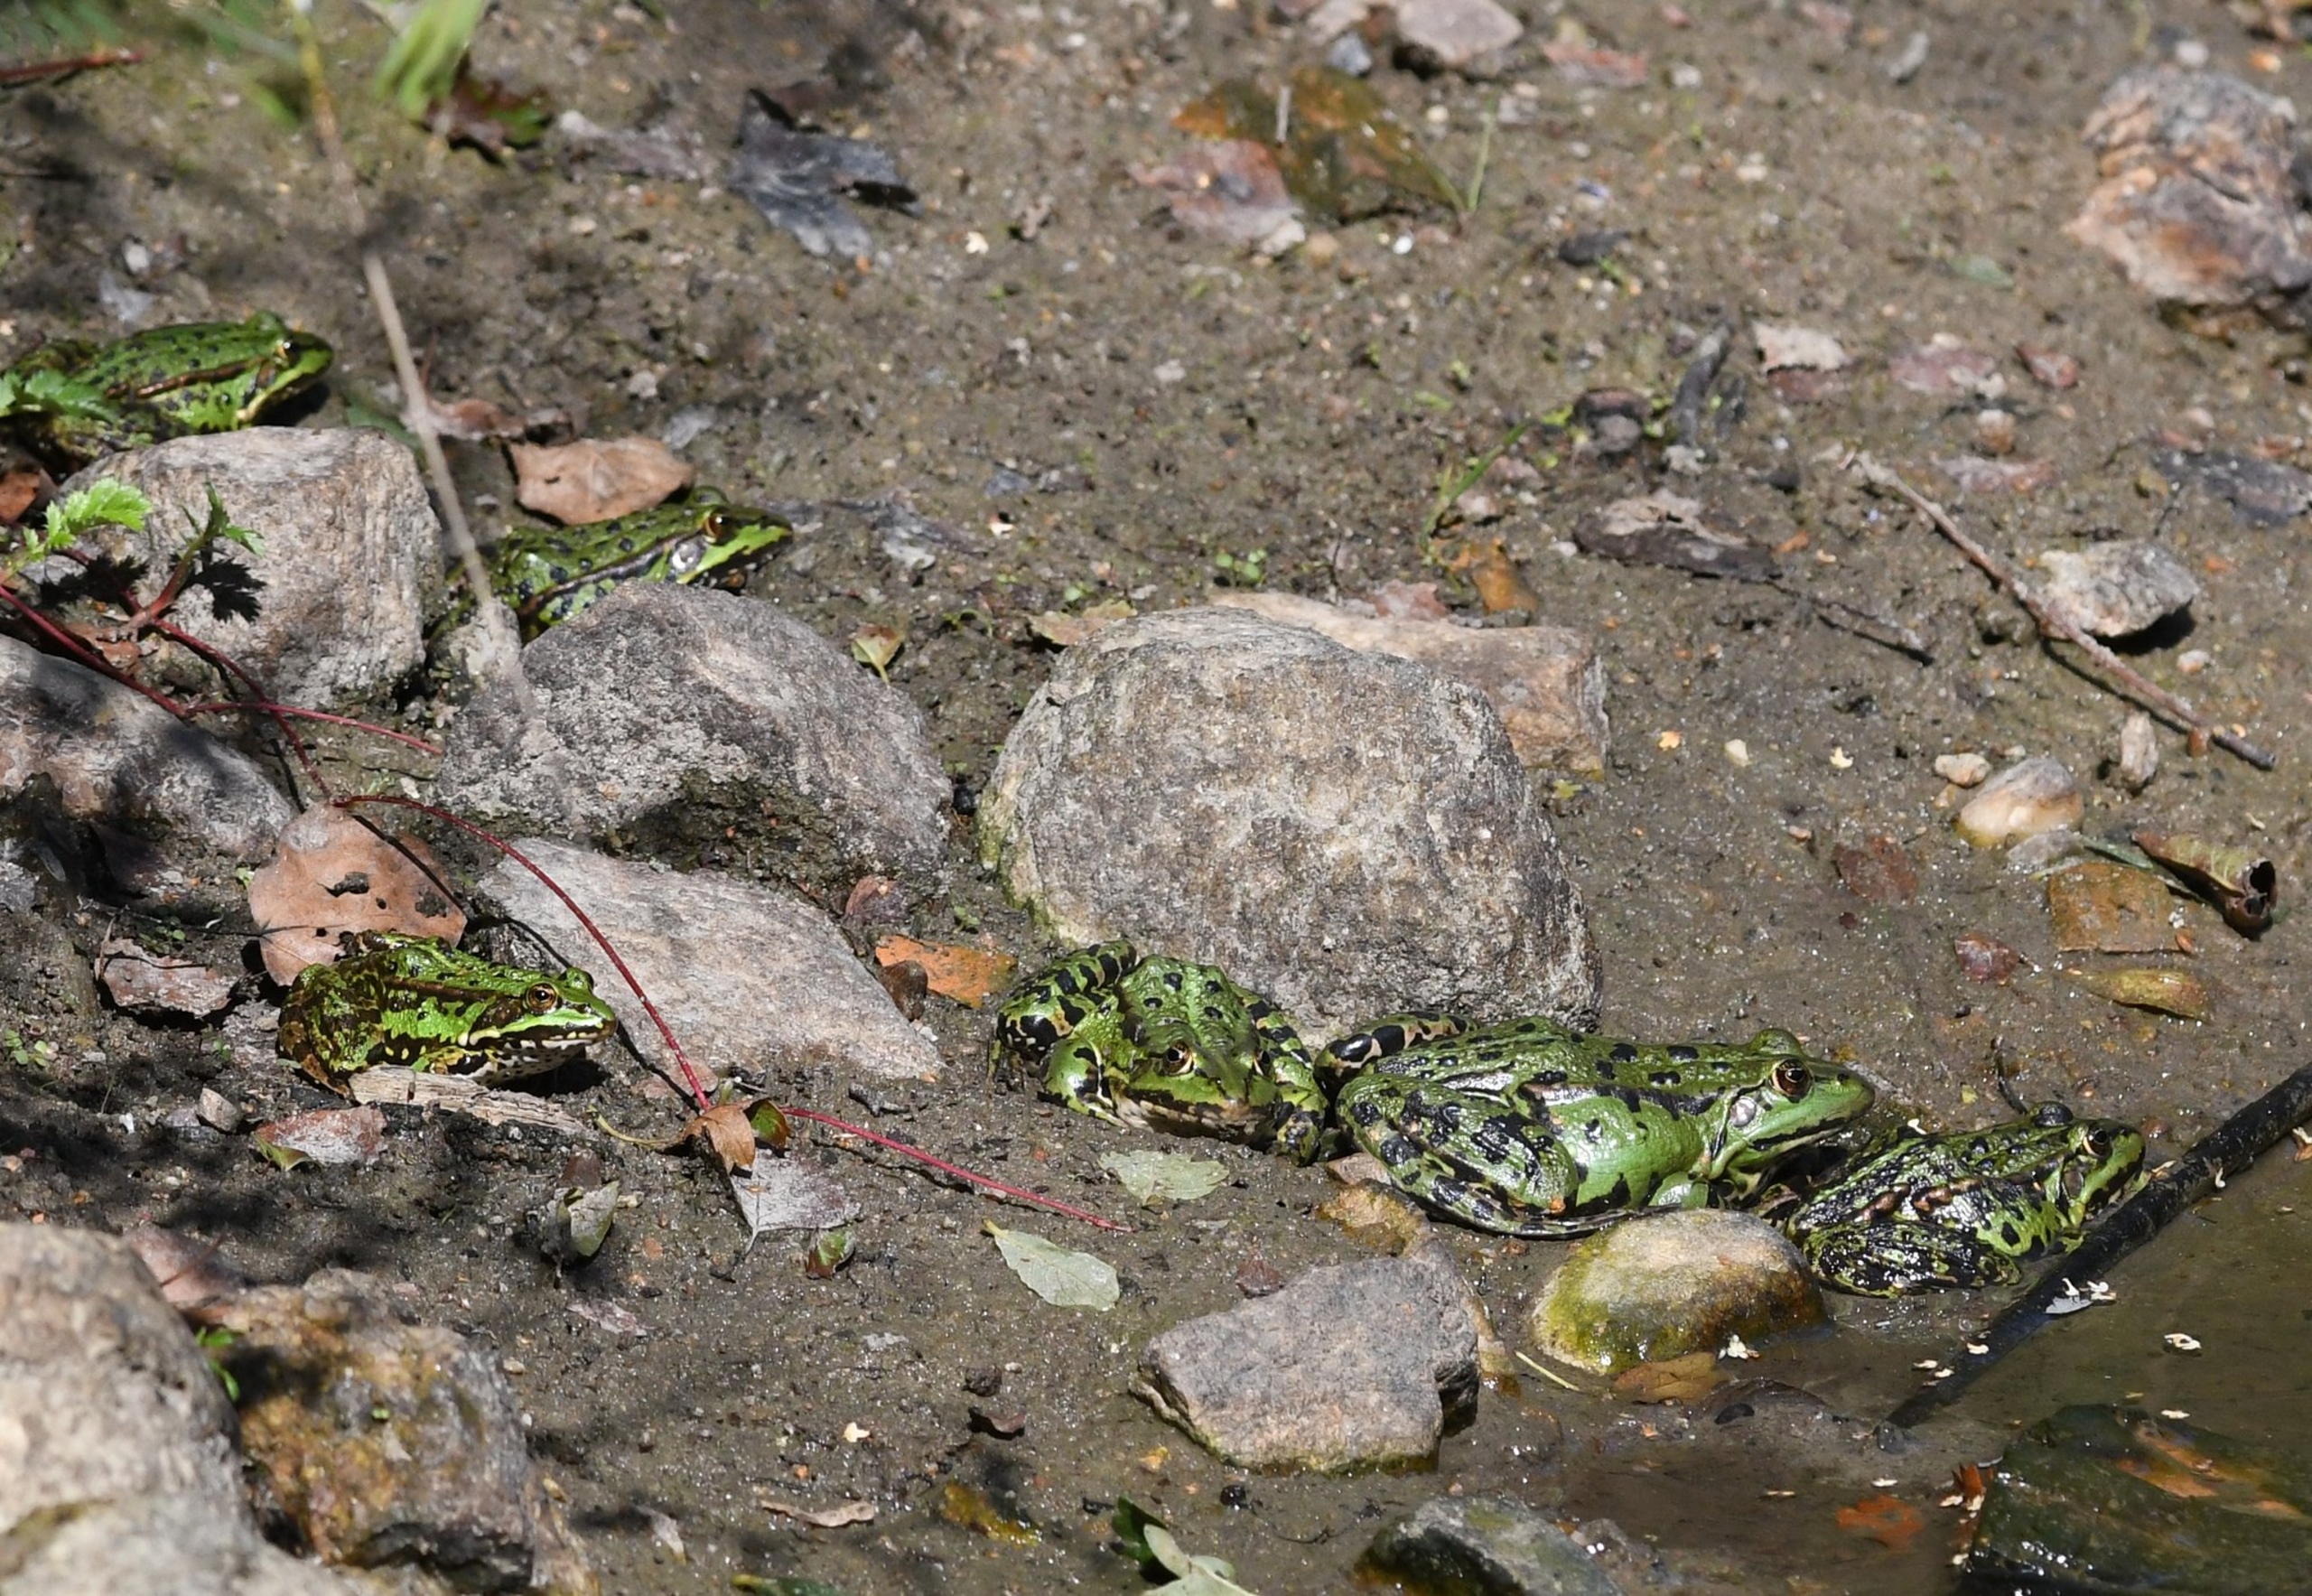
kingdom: Animalia
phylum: Chordata
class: Amphibia
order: Anura
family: Ranidae
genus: Pelophylax
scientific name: Pelophylax ridibundus
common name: Latterfrø
